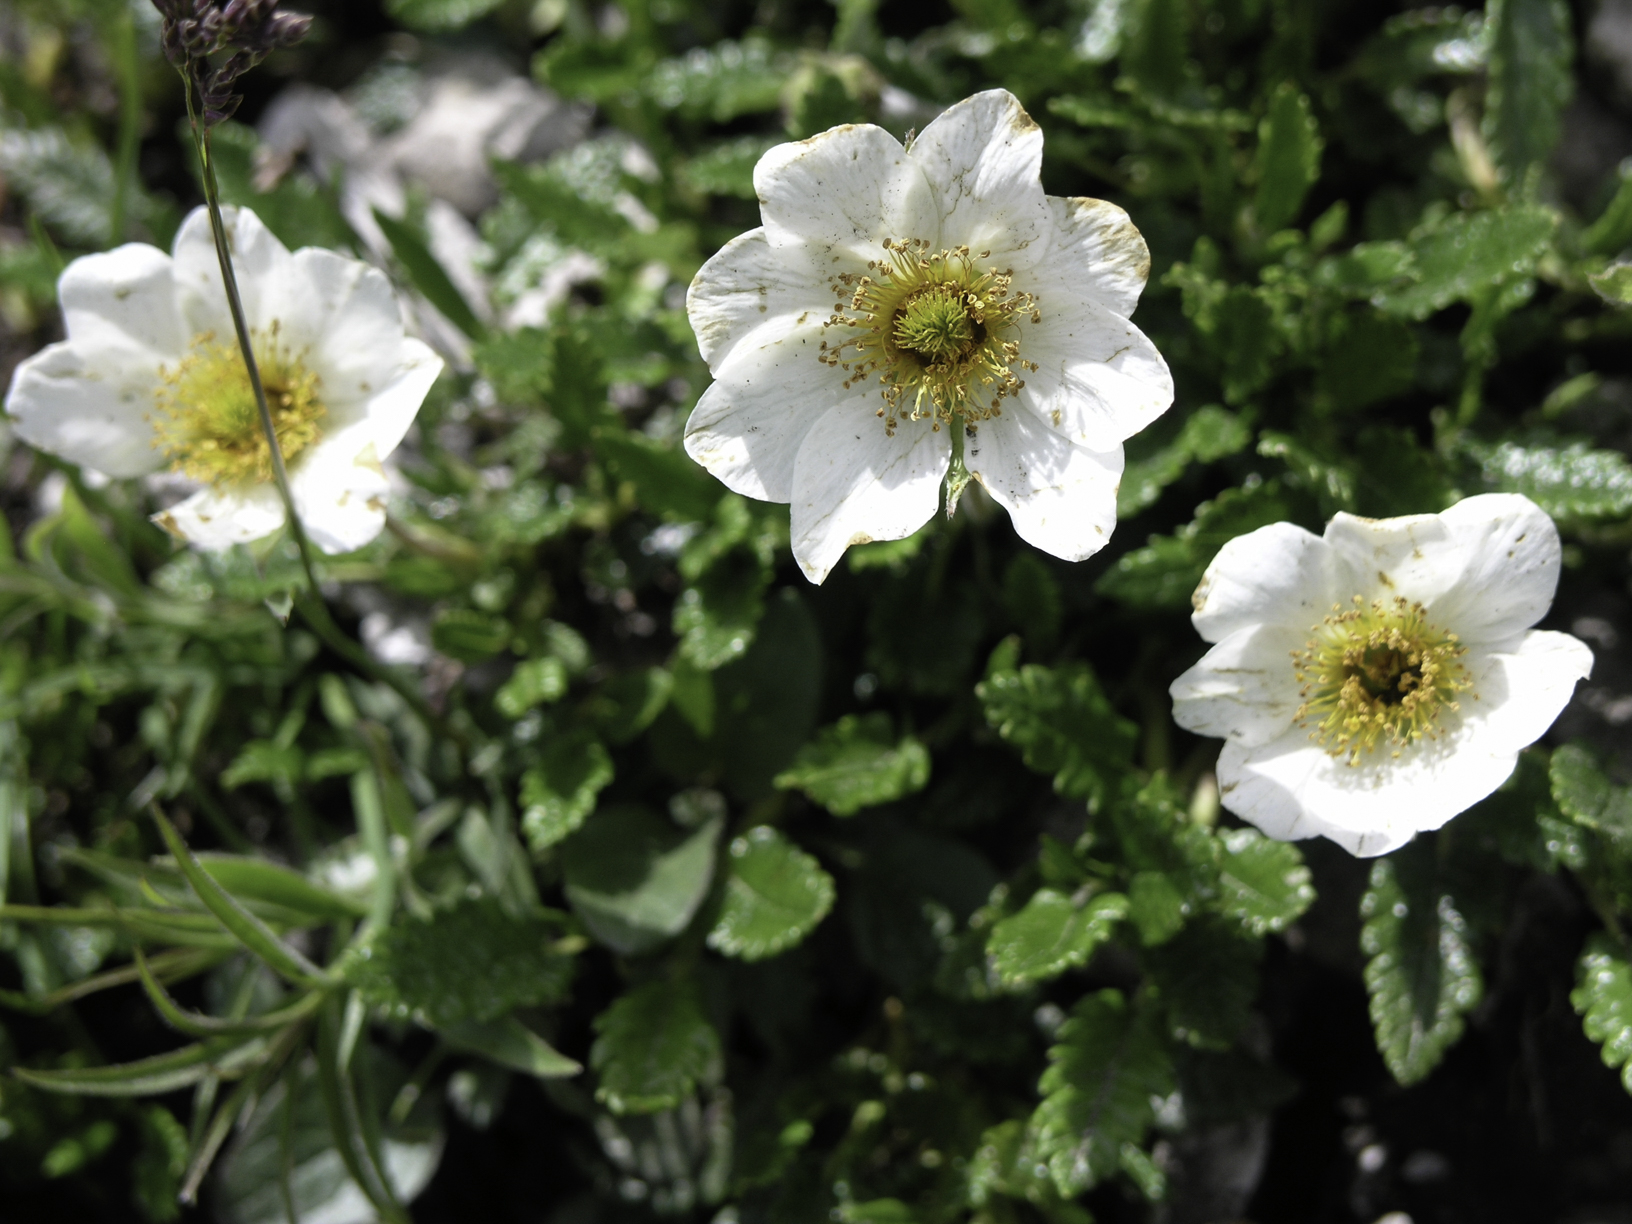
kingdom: Plantae
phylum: Tracheophyta
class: Magnoliopsida
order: Rosales
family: Rosaceae
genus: Dryas
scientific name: Dryas octopetala
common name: Eight-petal mountain-avens
